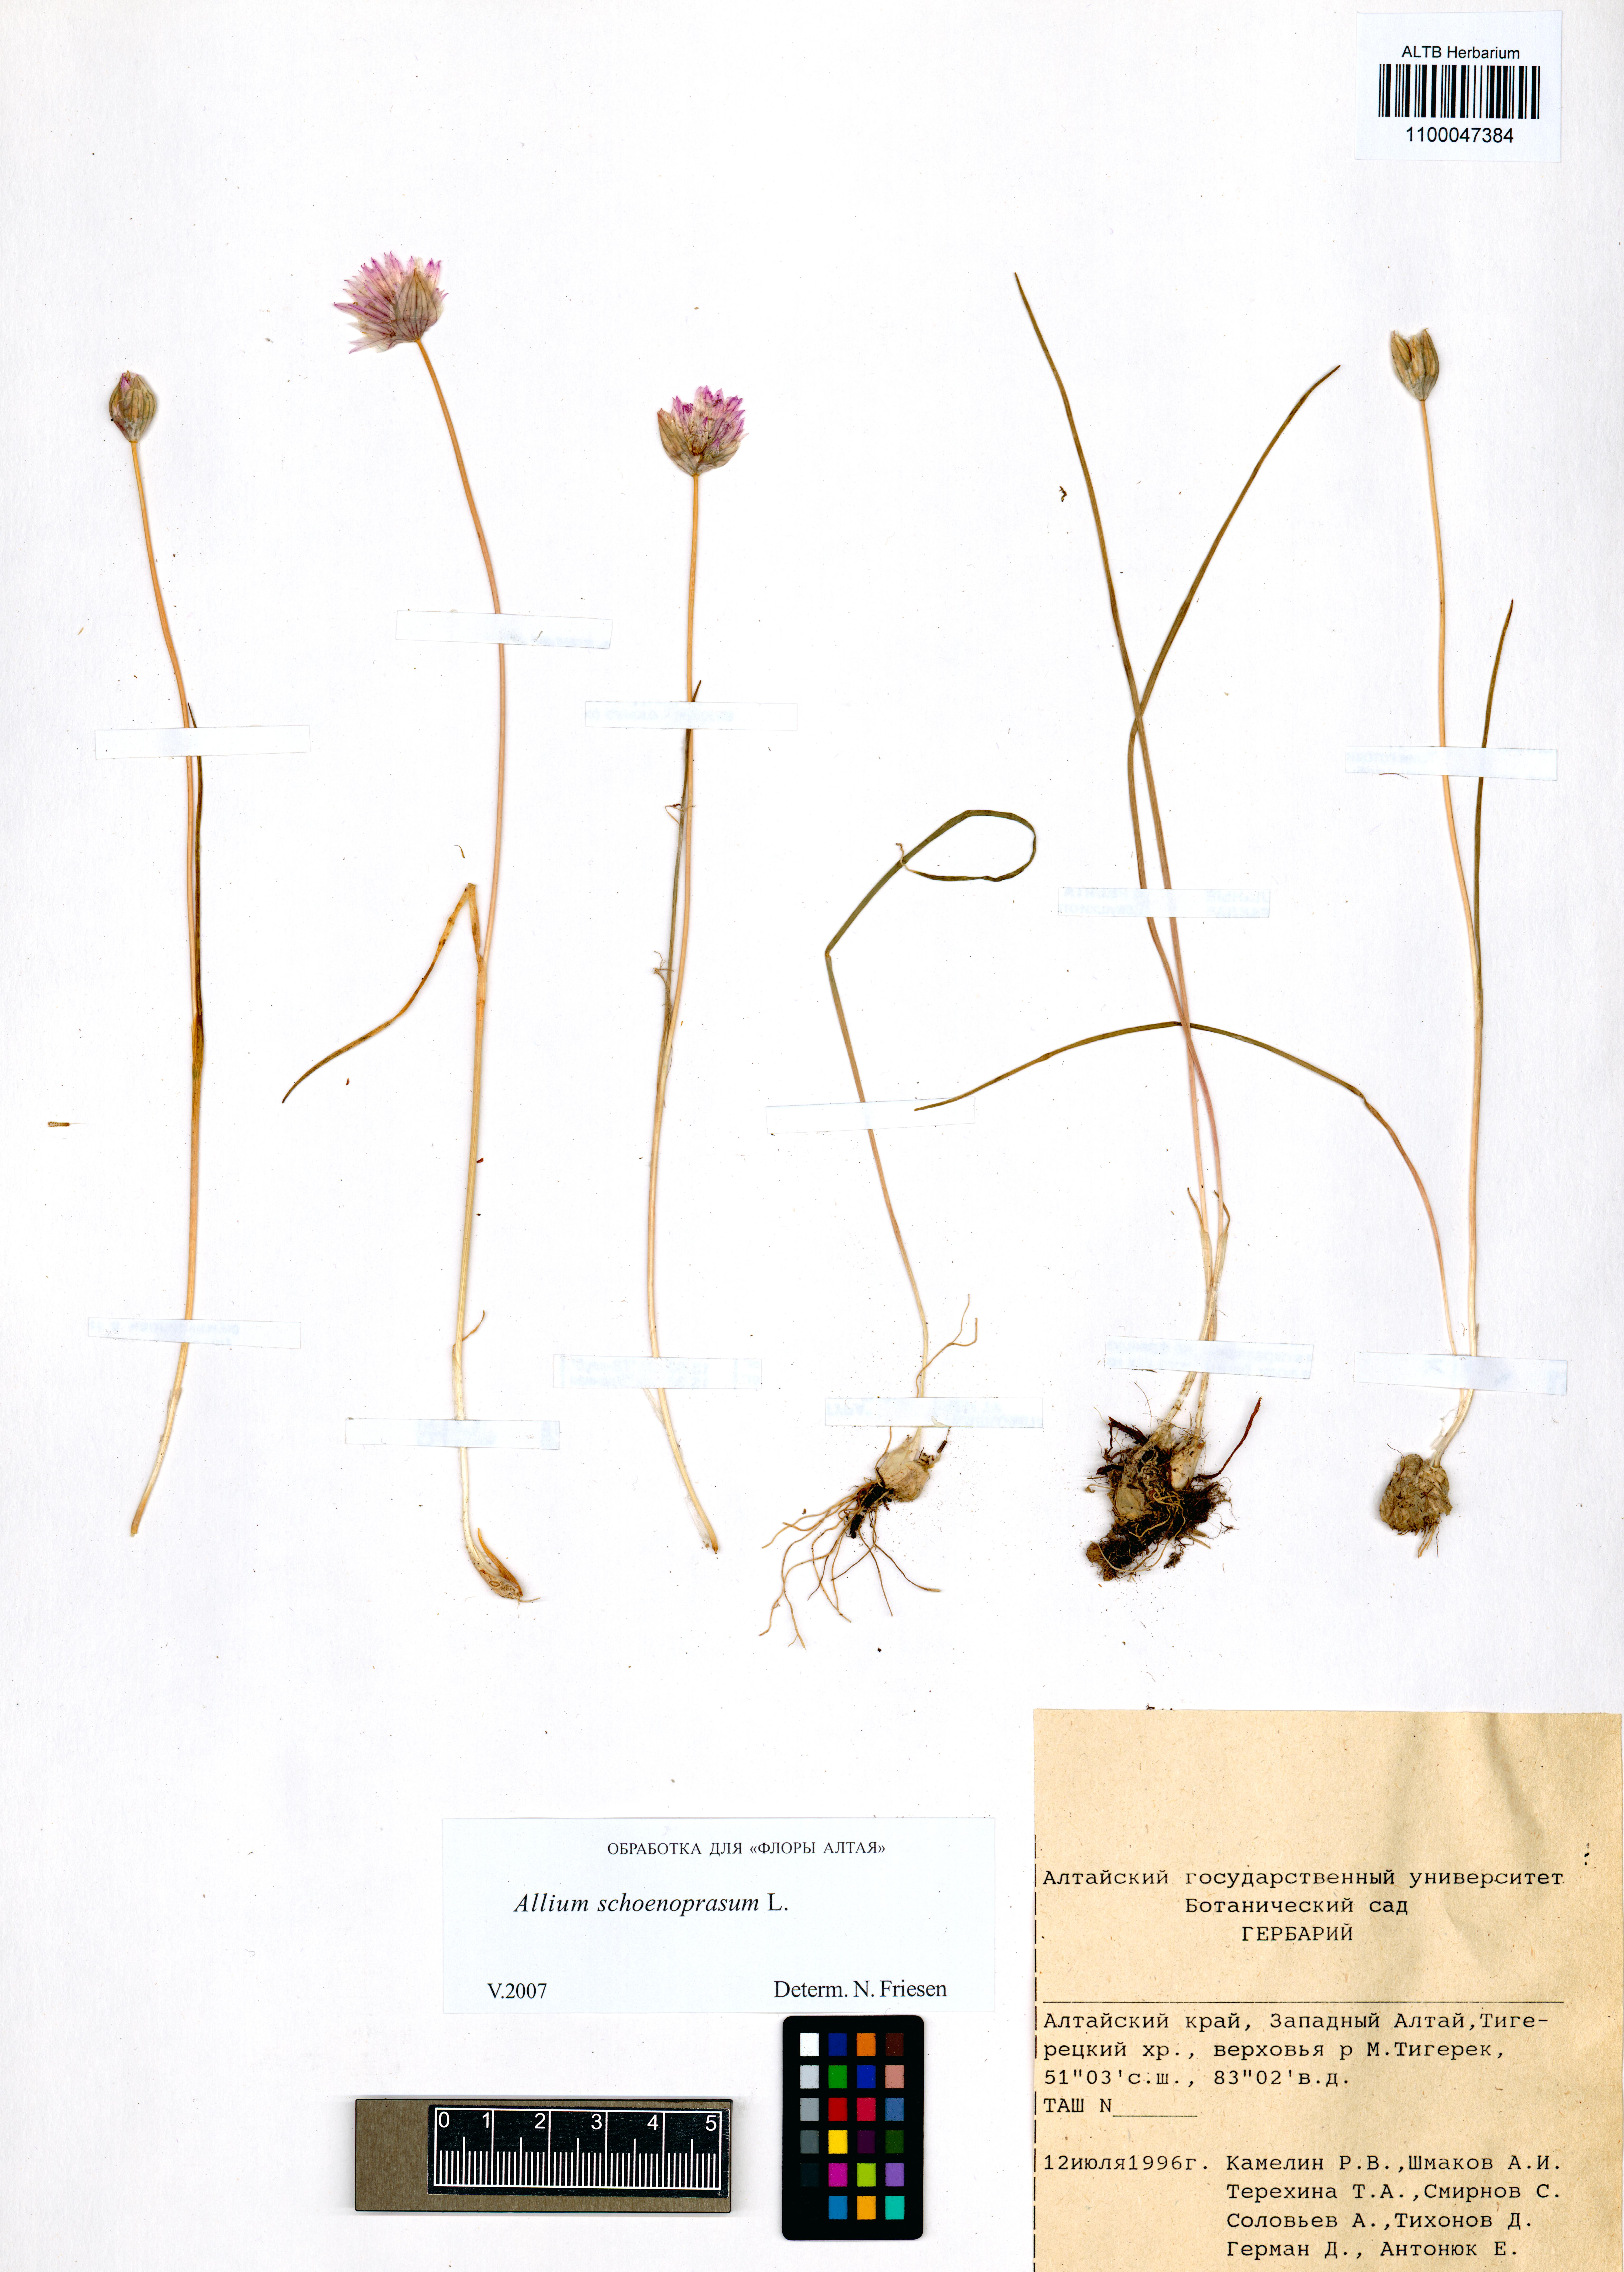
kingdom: Plantae
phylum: Tracheophyta
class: Liliopsida
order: Asparagales
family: Amaryllidaceae
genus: Allium
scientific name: Allium schoenoprasum
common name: Chives
